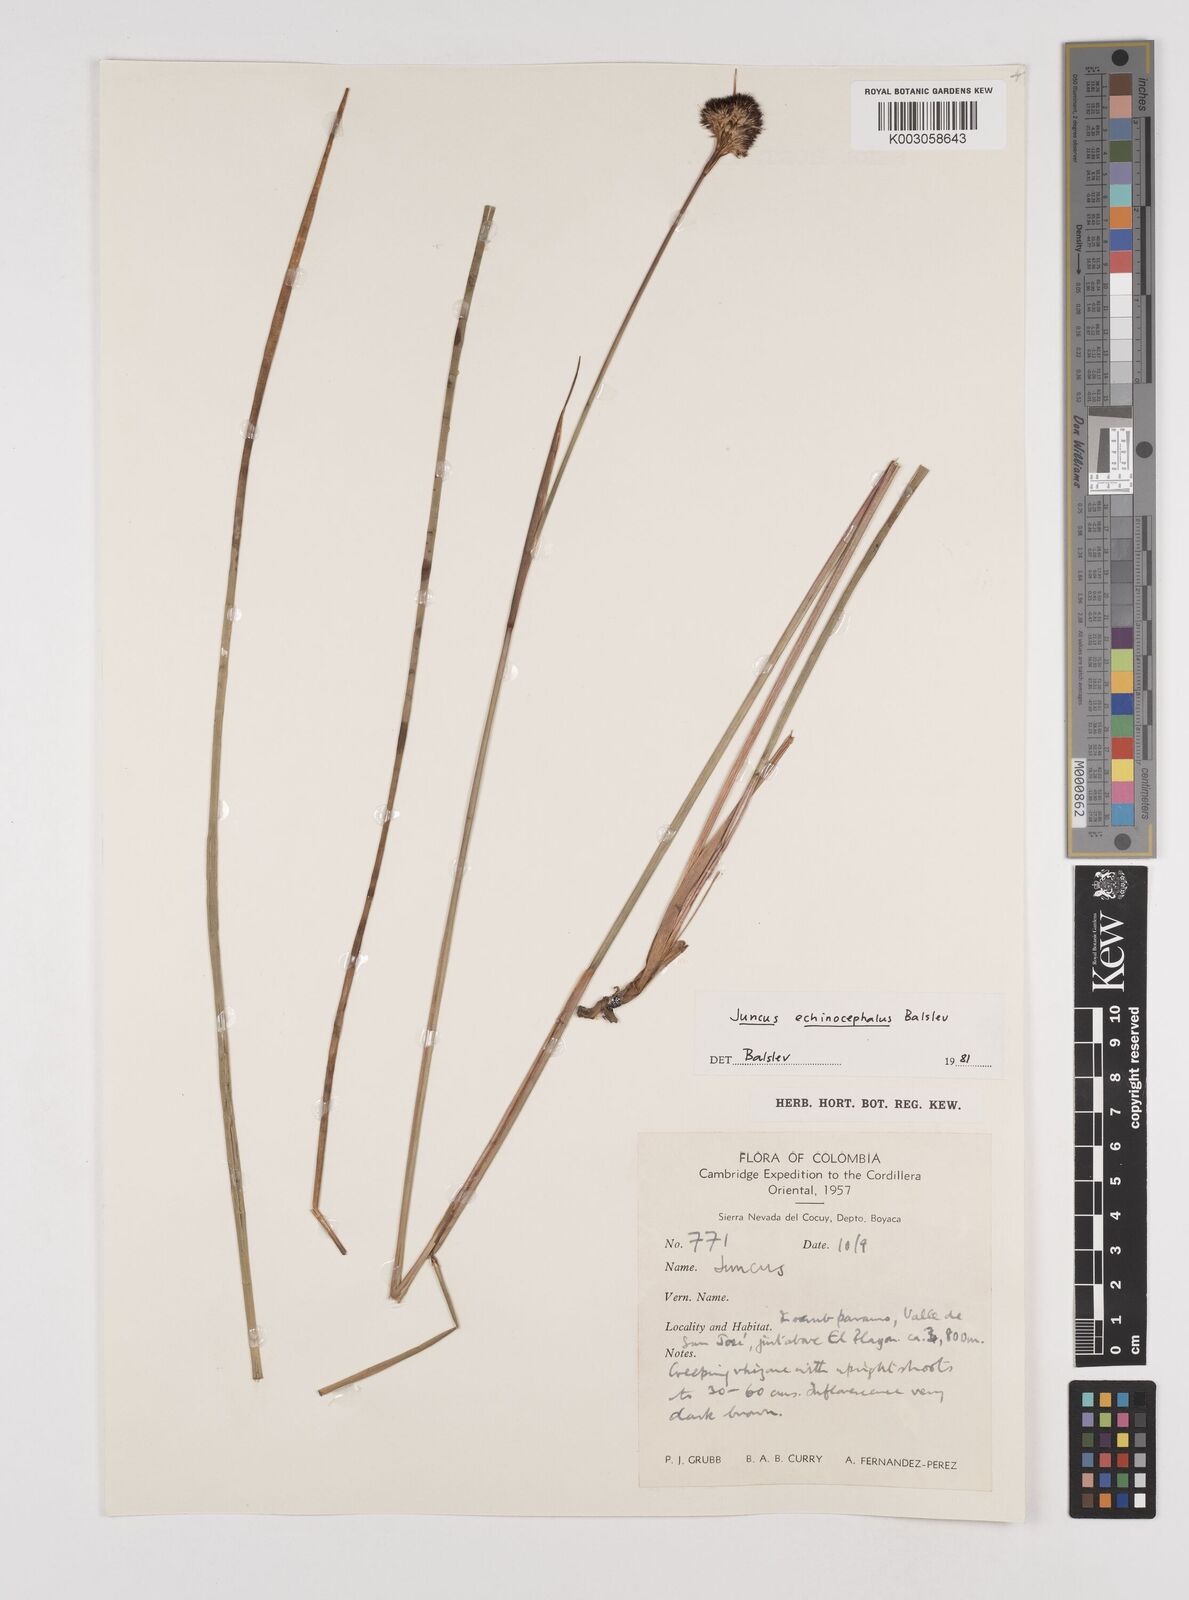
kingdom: Plantae
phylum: Tracheophyta
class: Liliopsida
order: Poales
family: Juncaceae
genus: Juncus
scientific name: Juncus echinocephalus
